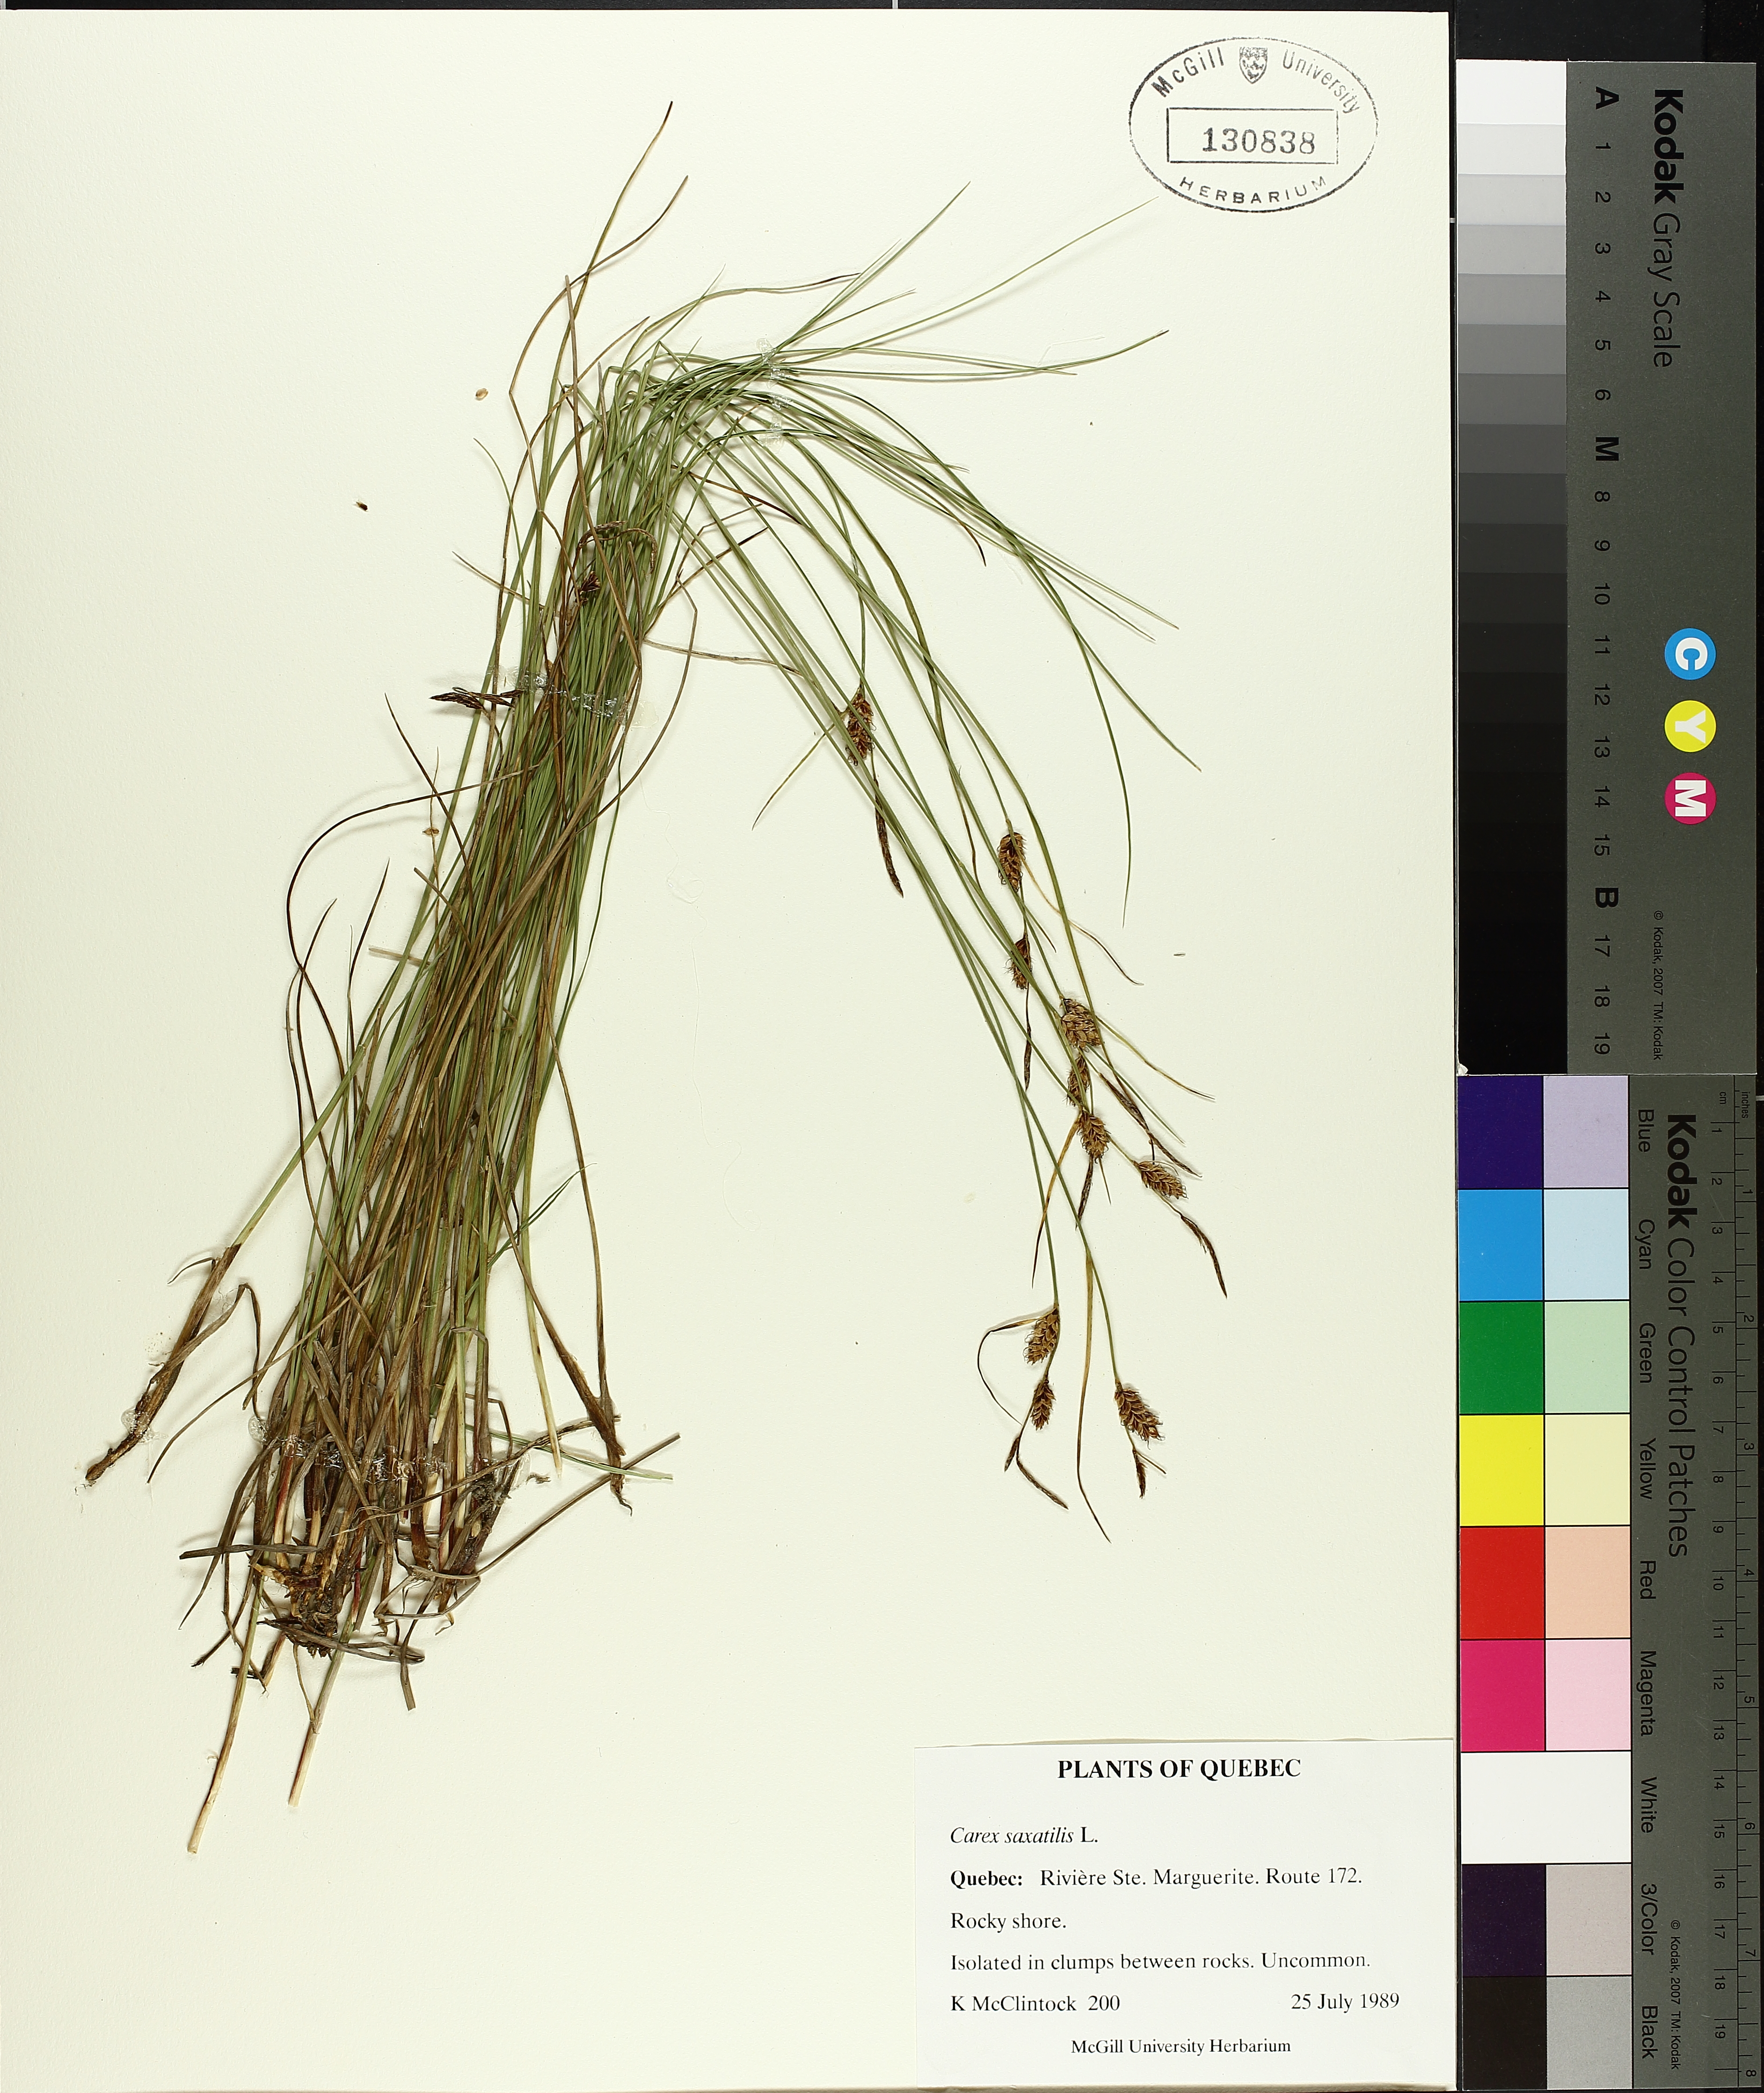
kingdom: Plantae
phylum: Tracheophyta
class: Liliopsida
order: Poales
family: Cyperaceae
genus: Carex
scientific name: Carex saxatilis
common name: Russet sedge
